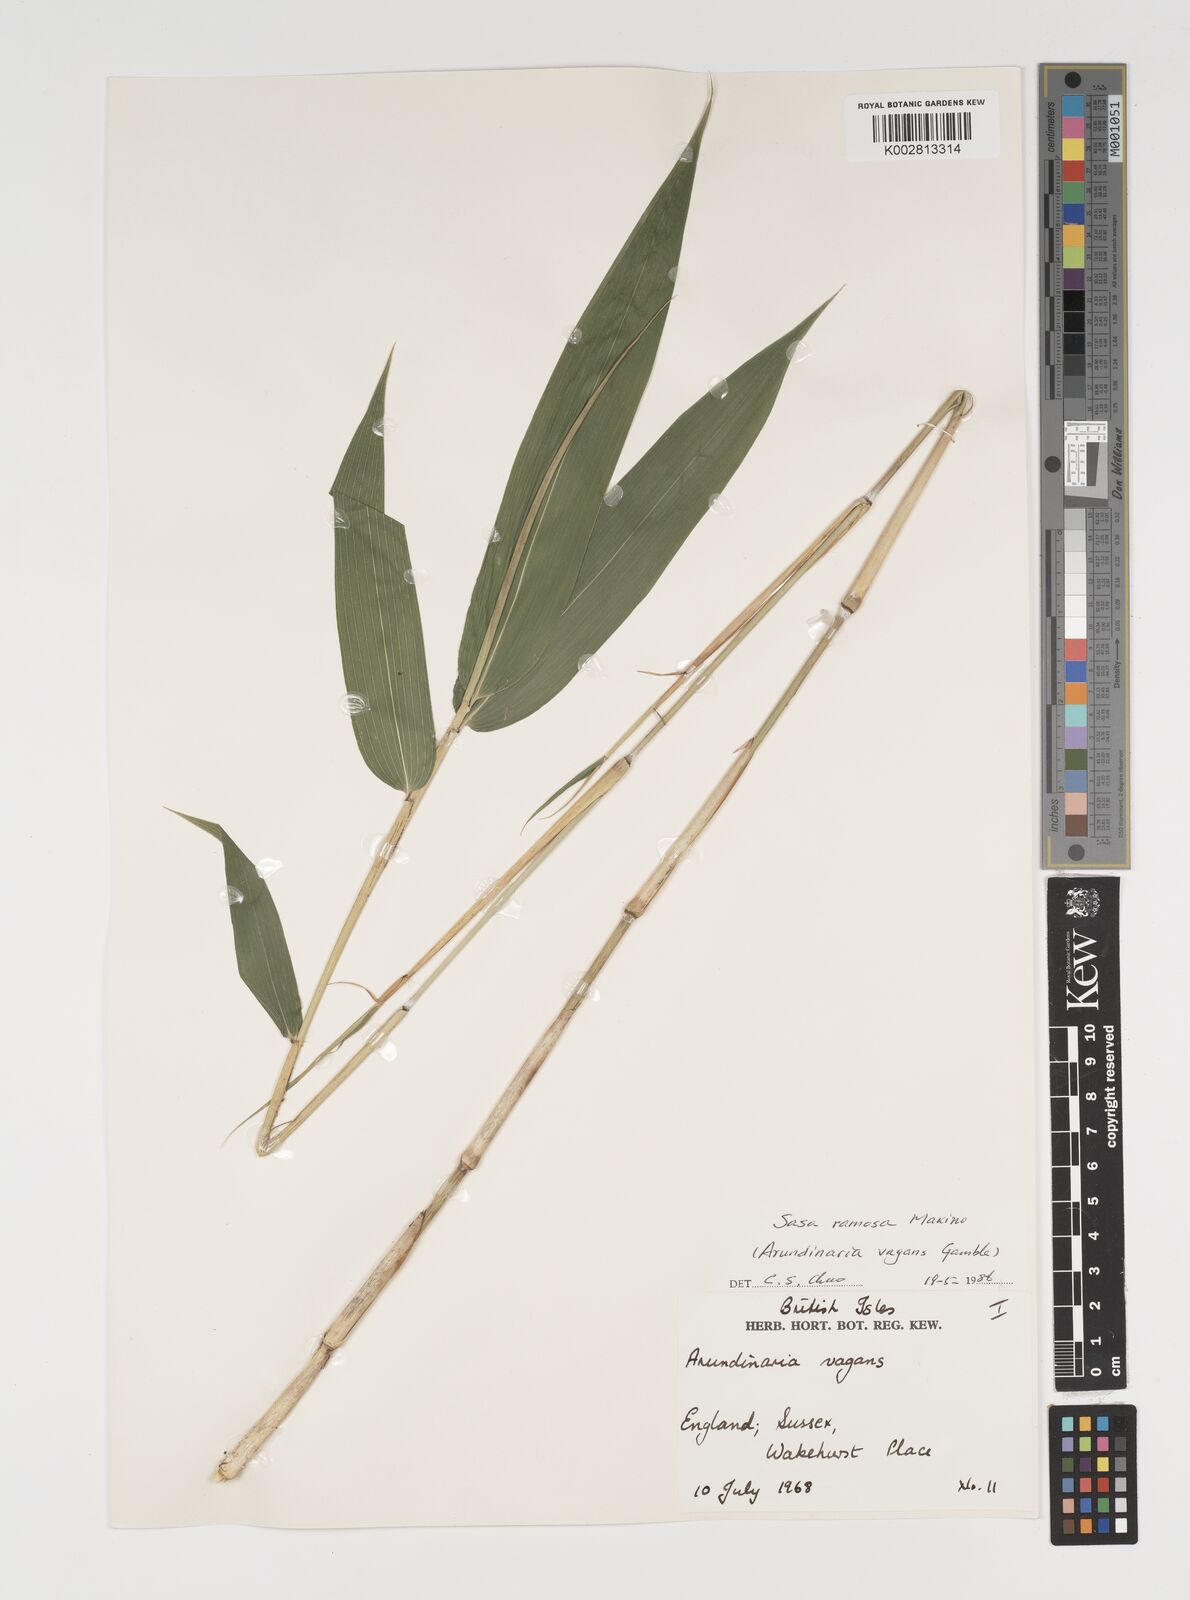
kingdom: Plantae
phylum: Tracheophyta
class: Liliopsida
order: Poales
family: Poaceae
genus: Sasaella
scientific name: Sasaella ramosa
